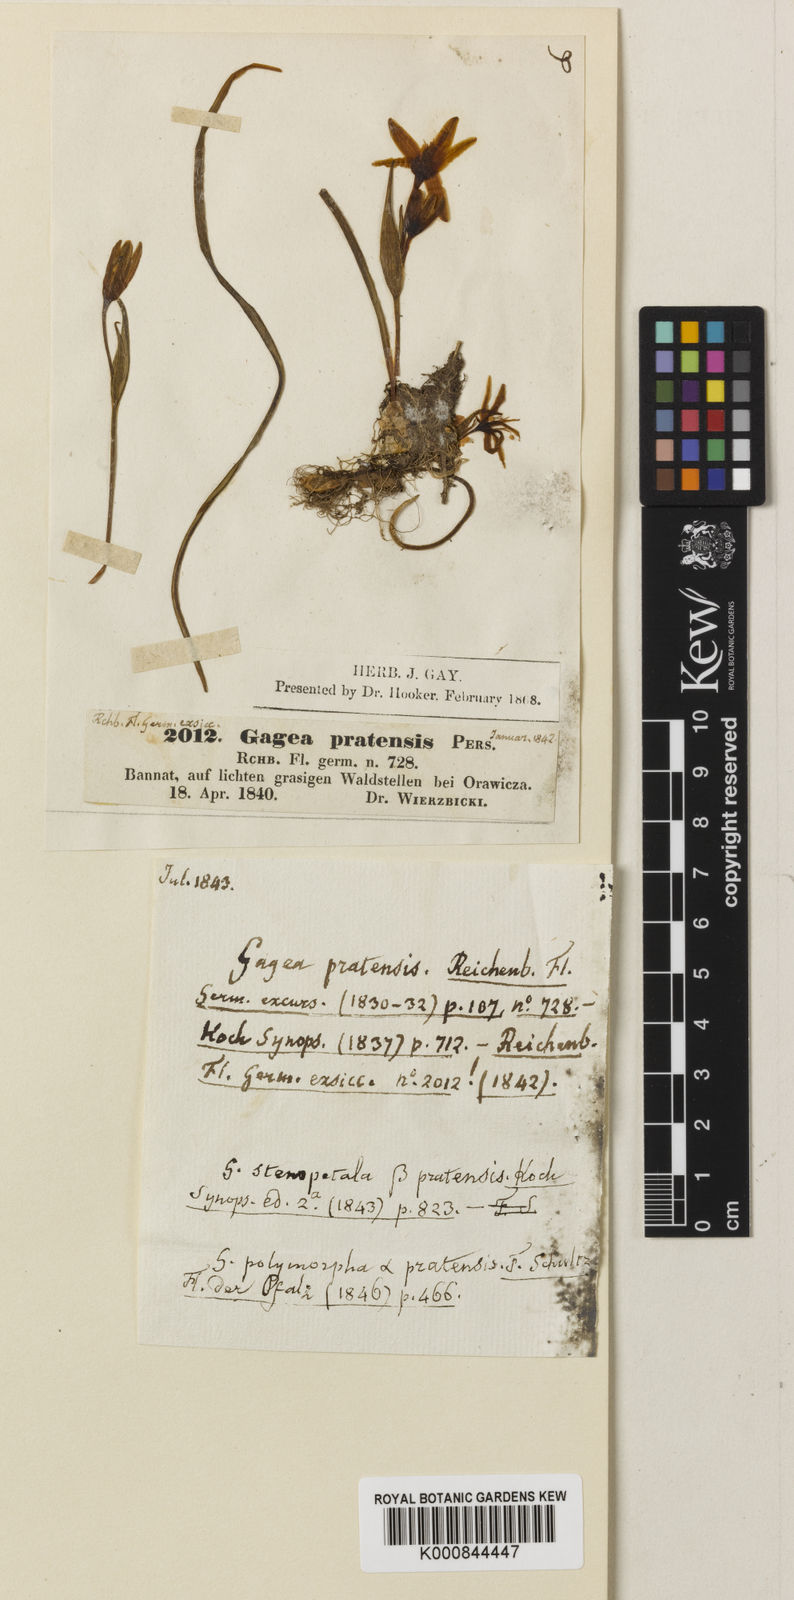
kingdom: Plantae
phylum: Tracheophyta
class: Liliopsida
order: Liliales
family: Liliaceae
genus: Gagea
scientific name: Gagea pratensis
